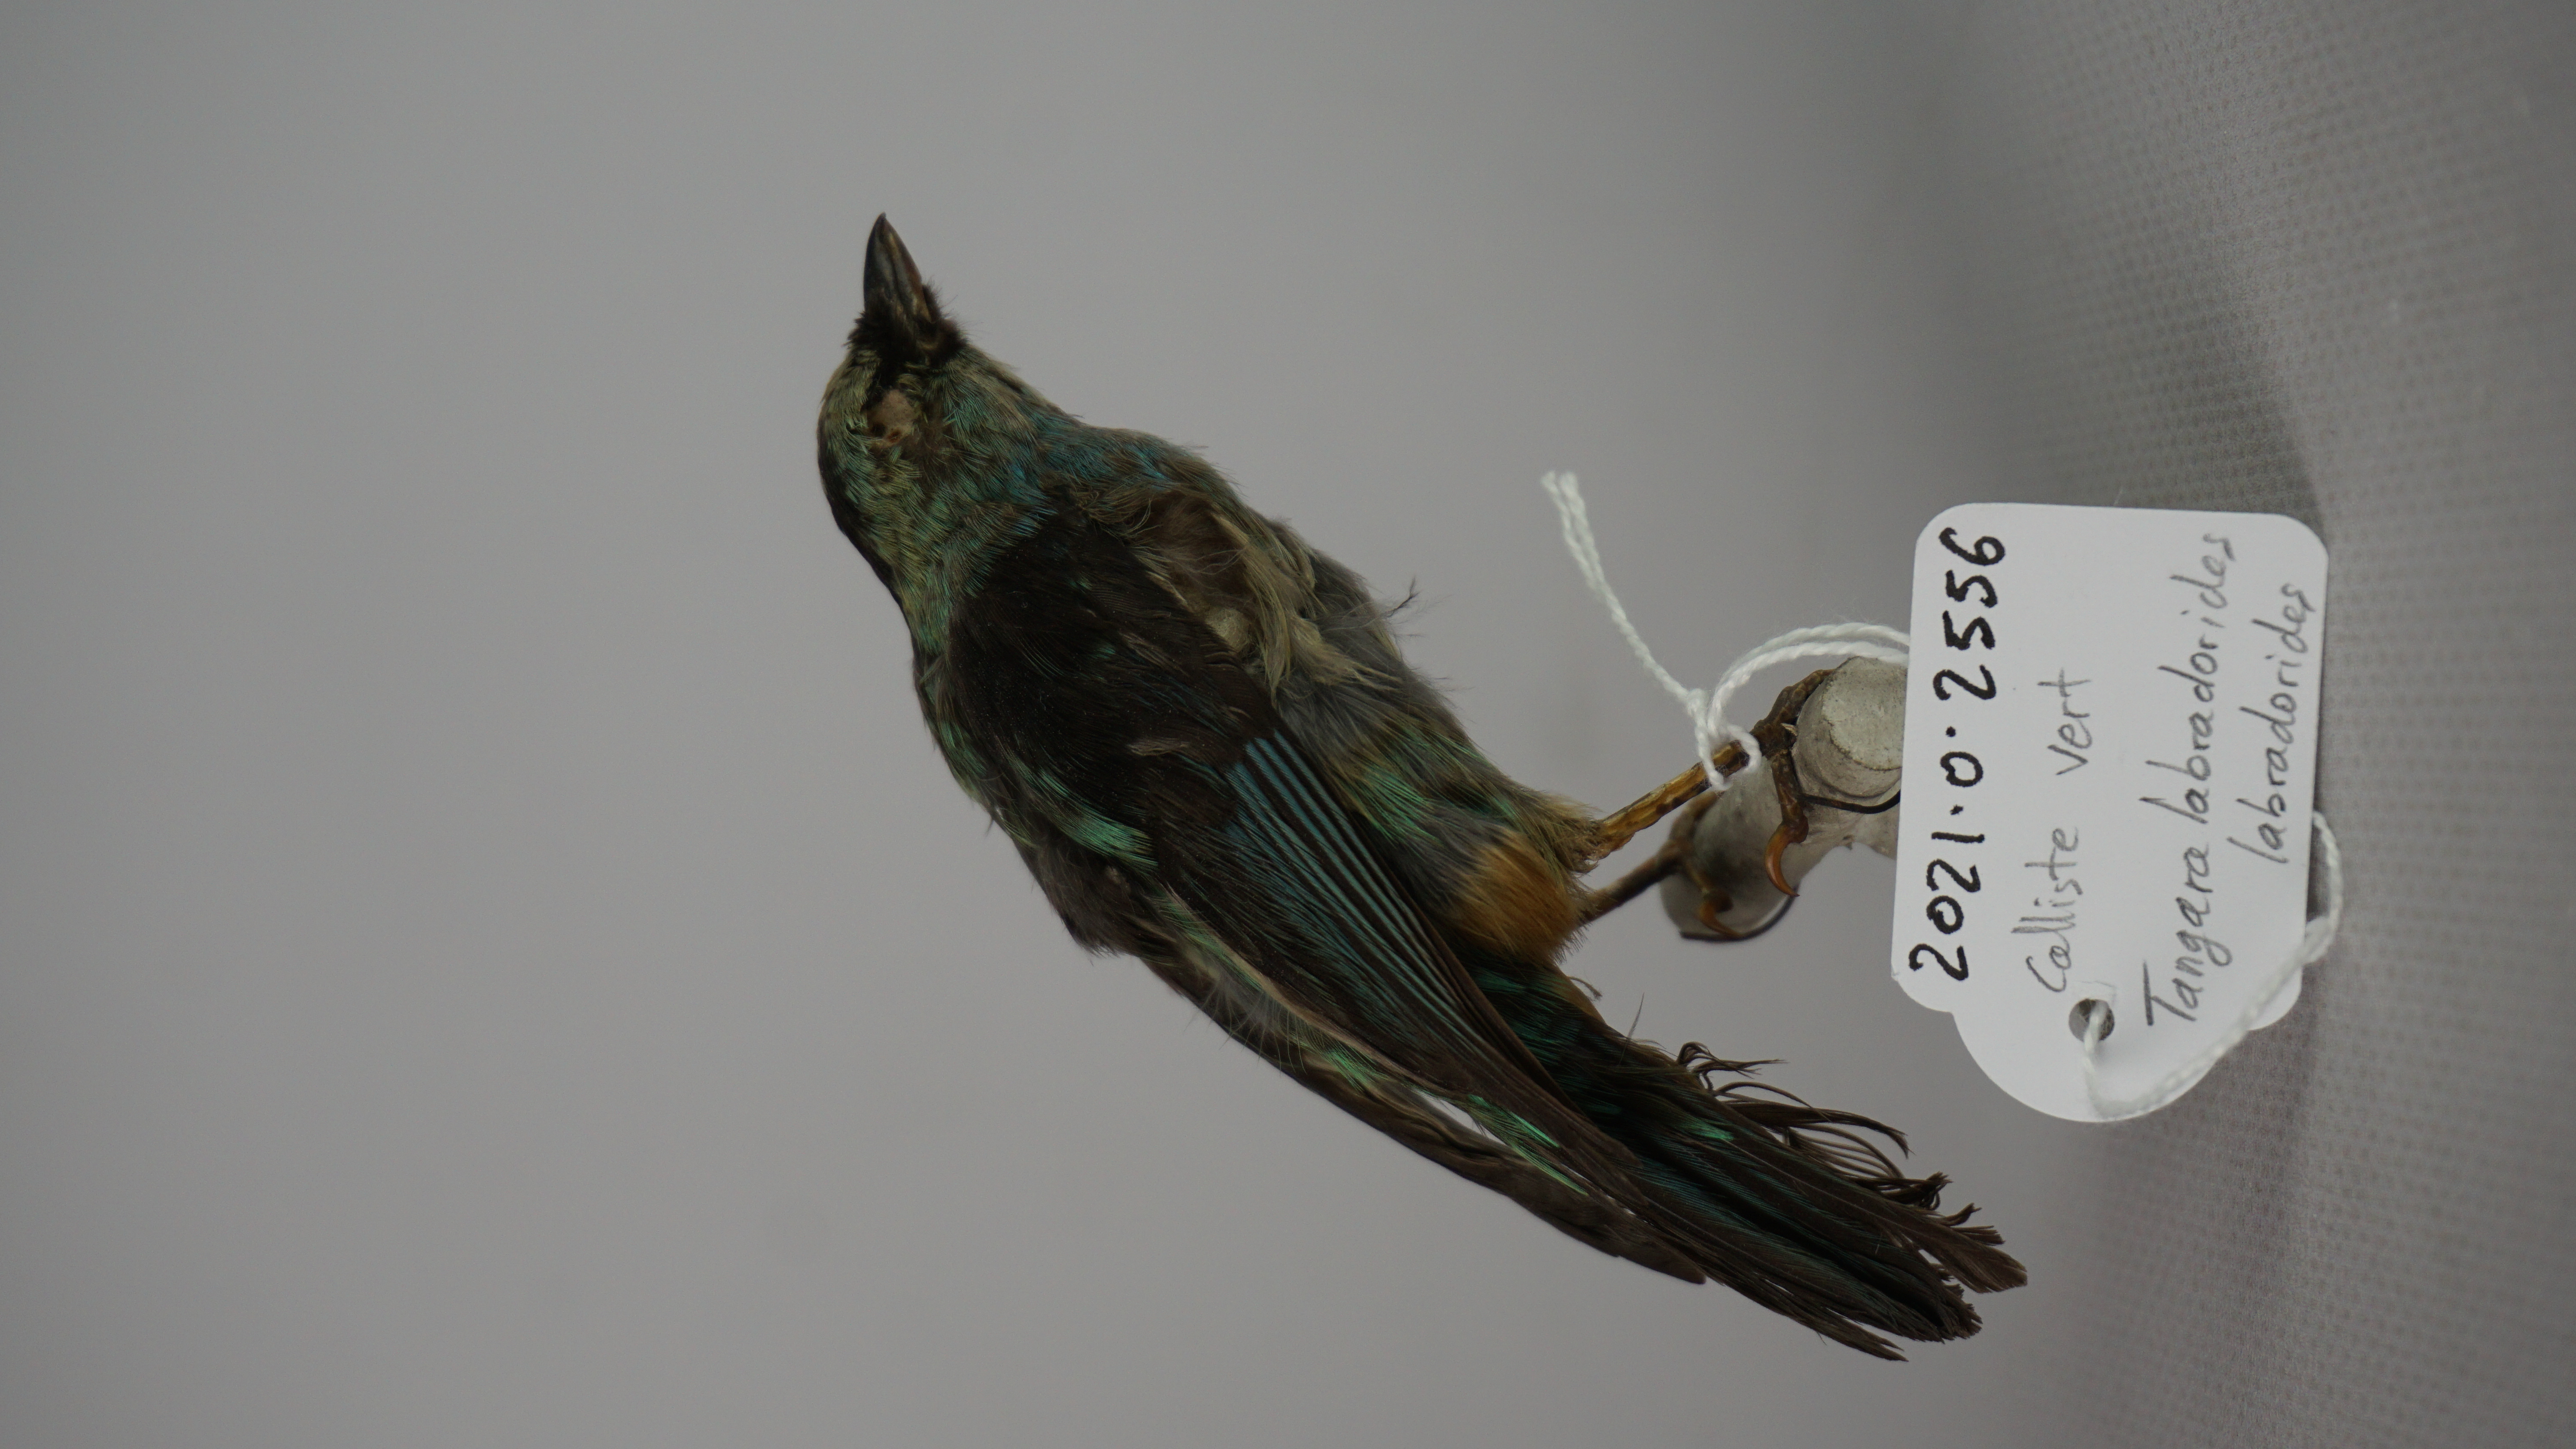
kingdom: Animalia
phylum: Chordata
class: Aves
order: Passeriformes
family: Thraupidae
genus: Tangara
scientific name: Tangara nigroviridis
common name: Beryl-spangled tanager
